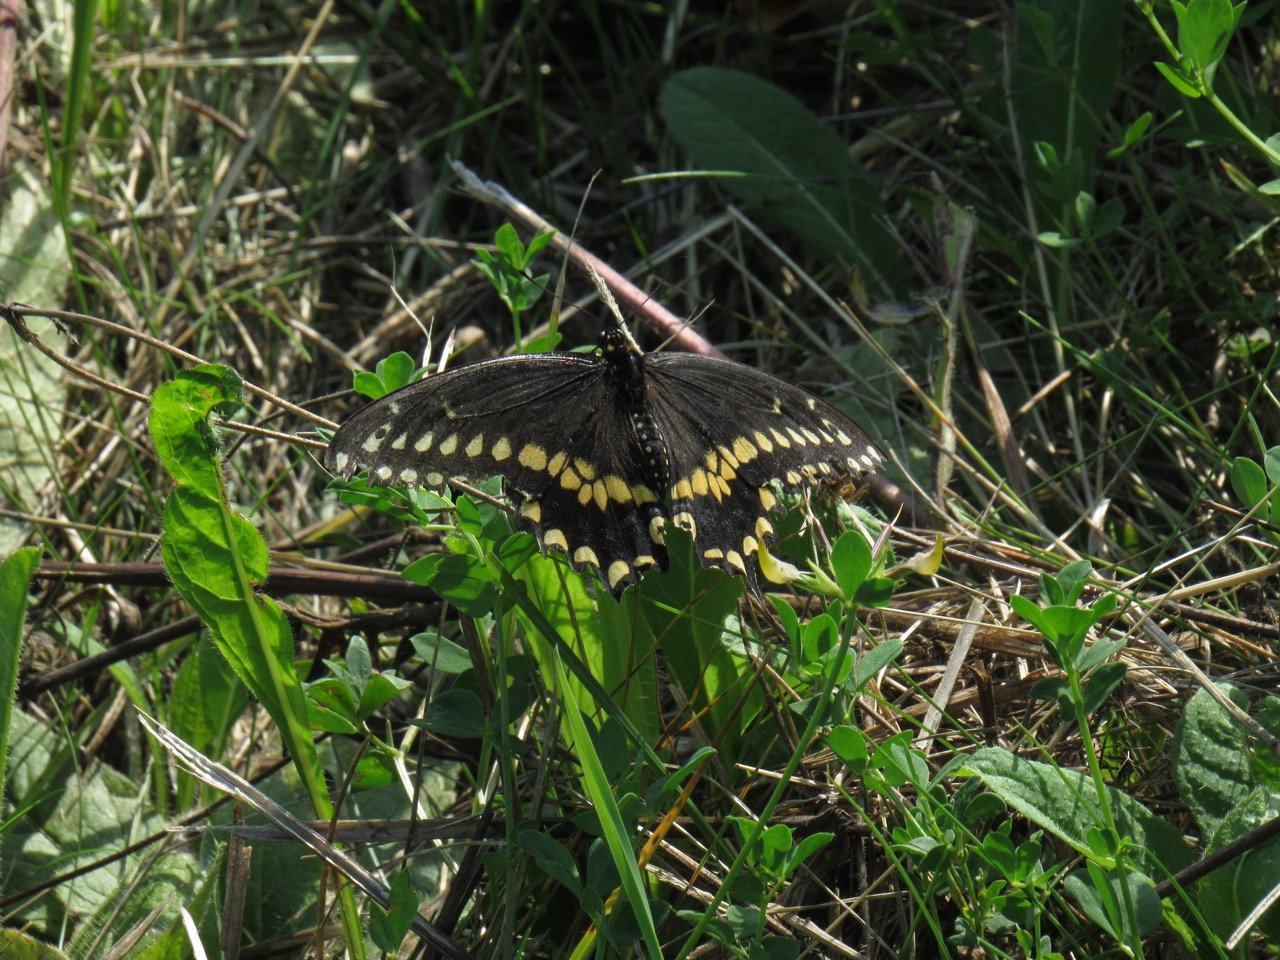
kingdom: Animalia
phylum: Arthropoda
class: Insecta
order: Lepidoptera
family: Papilionidae
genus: Papilio
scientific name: Papilio polyxenes
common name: Black Swallowtail
